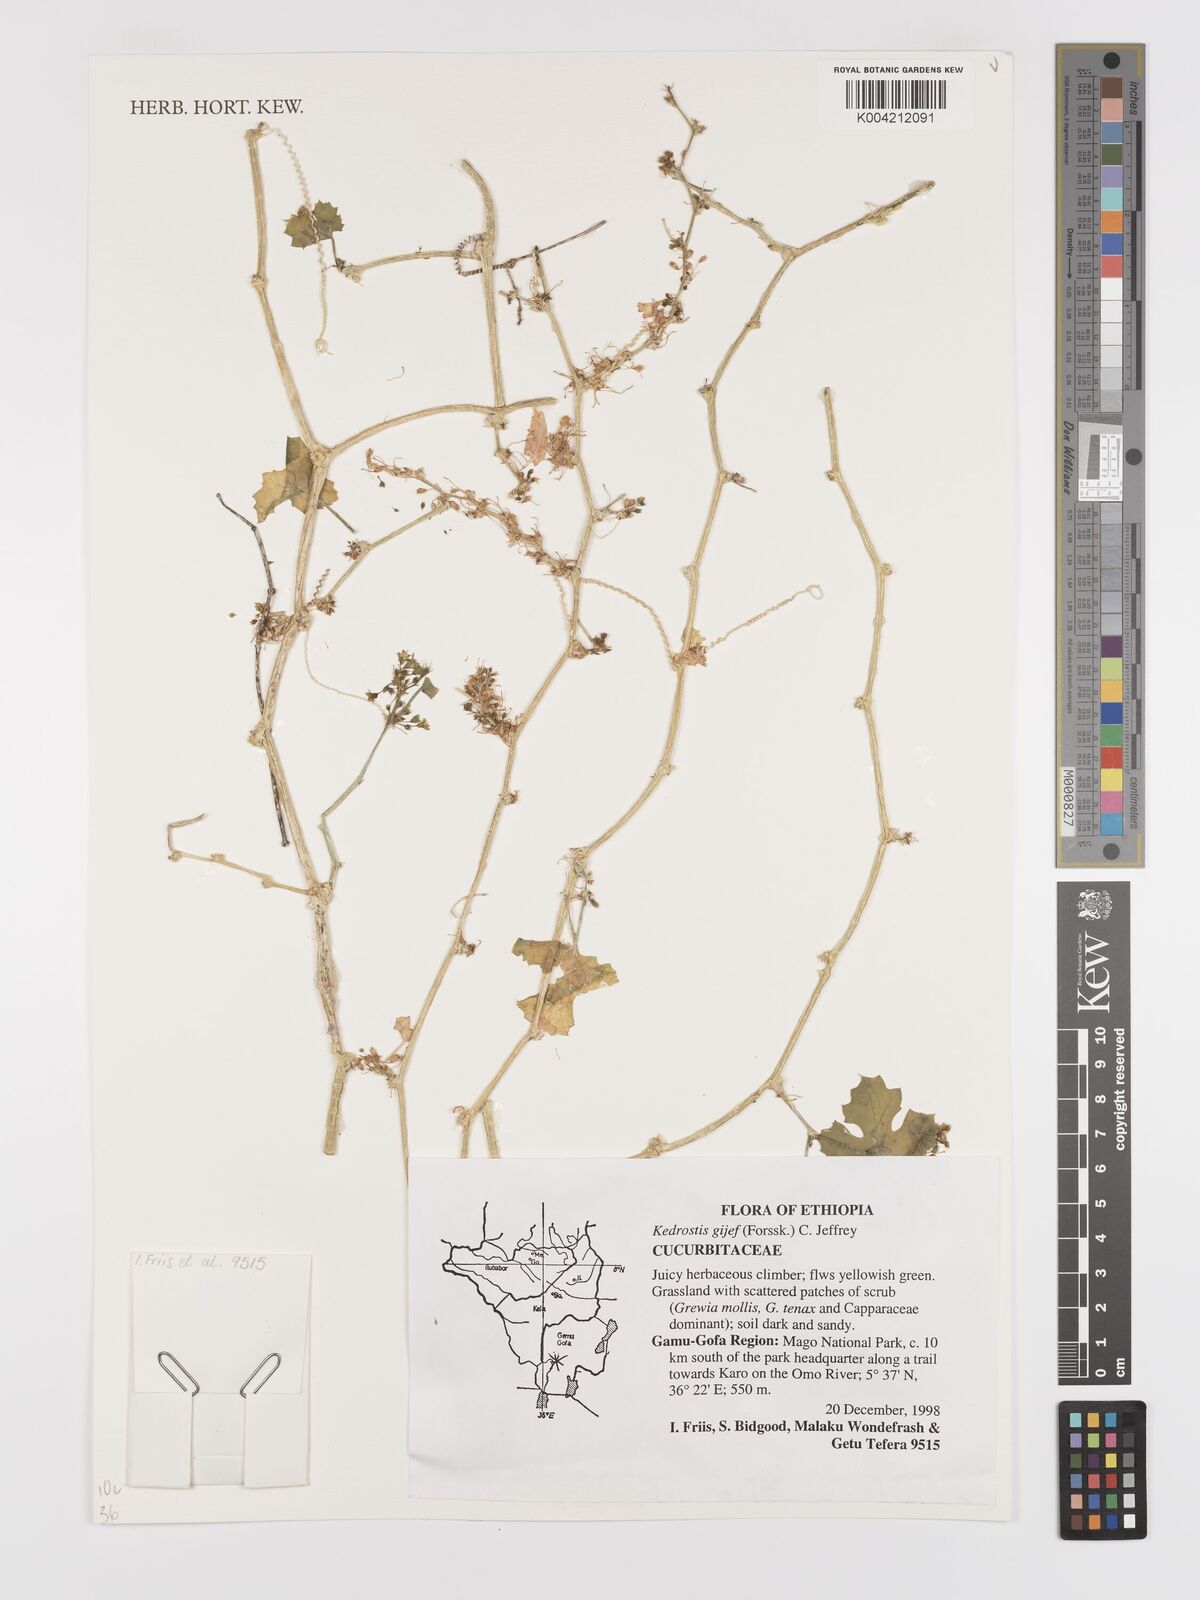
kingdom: Plantae
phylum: Tracheophyta
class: Magnoliopsida
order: Cucurbitales
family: Cucurbitaceae
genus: Kedrostis
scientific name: Kedrostis gijef
